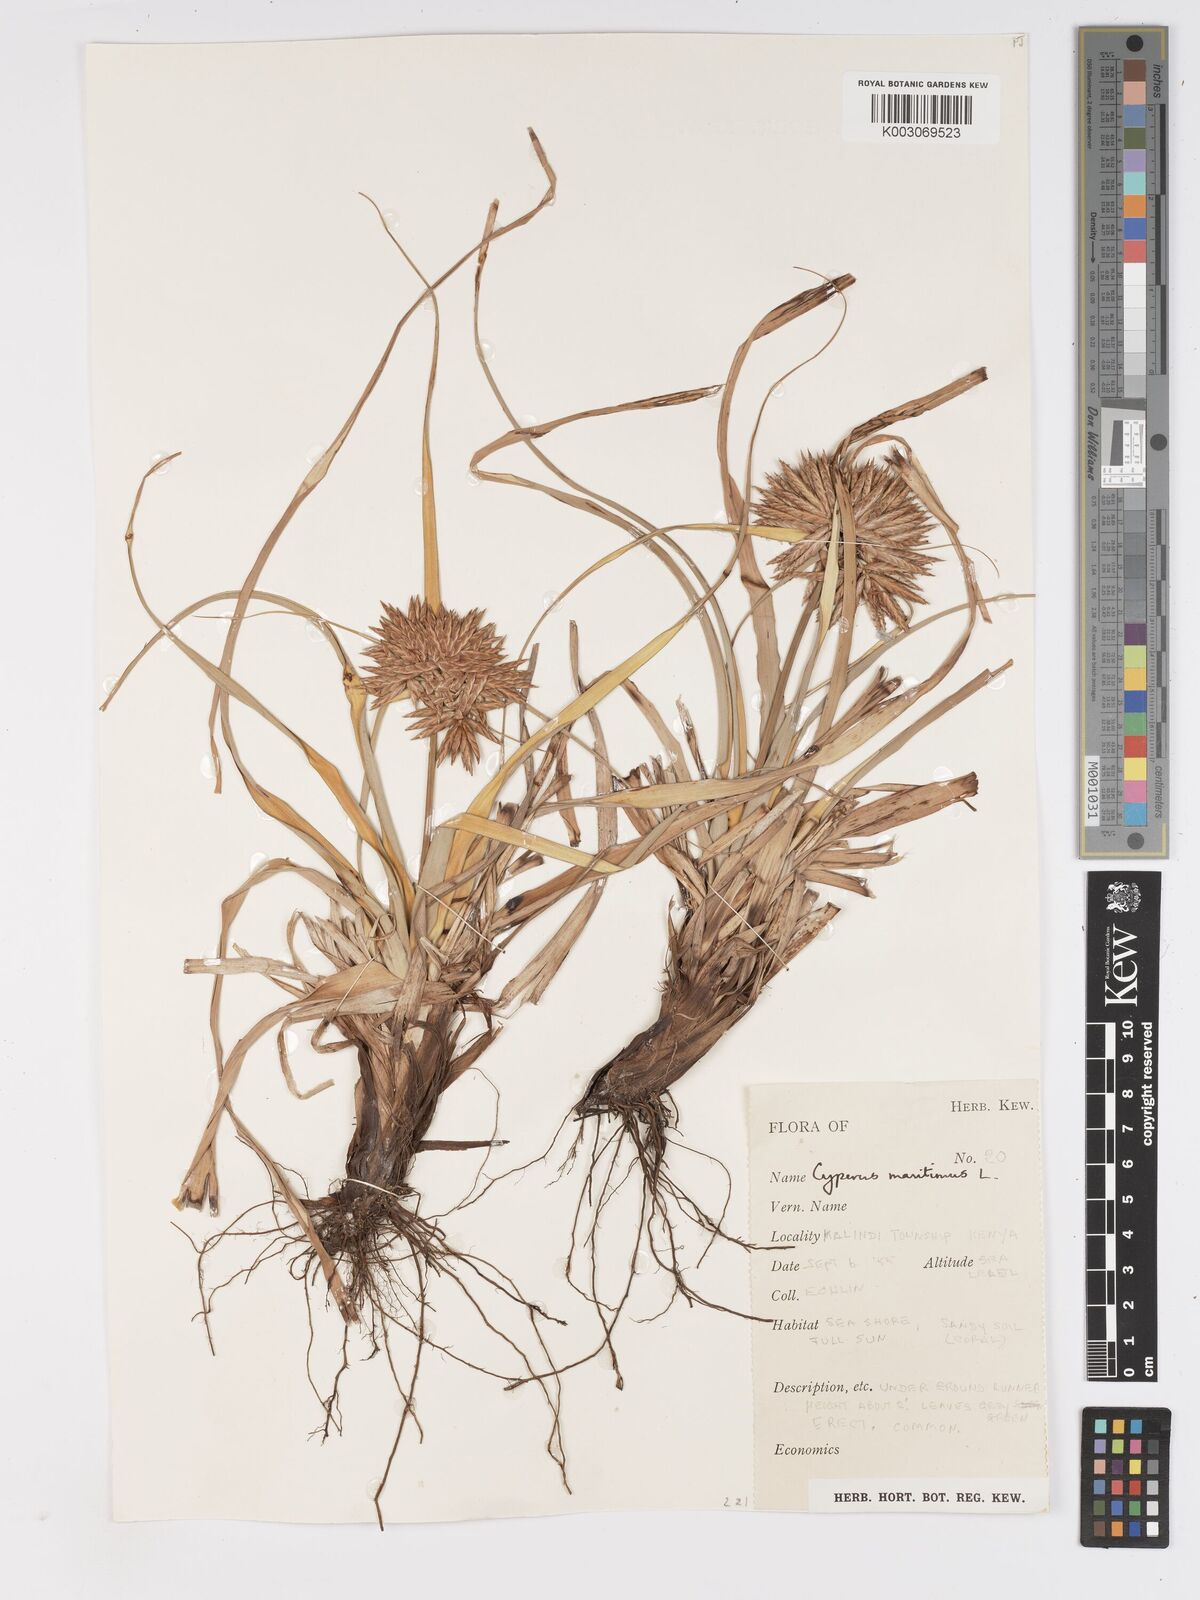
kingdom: Plantae
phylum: Tracheophyta
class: Liliopsida
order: Poales
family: Cyperaceae
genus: Cyperus
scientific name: Cyperus crassipes
